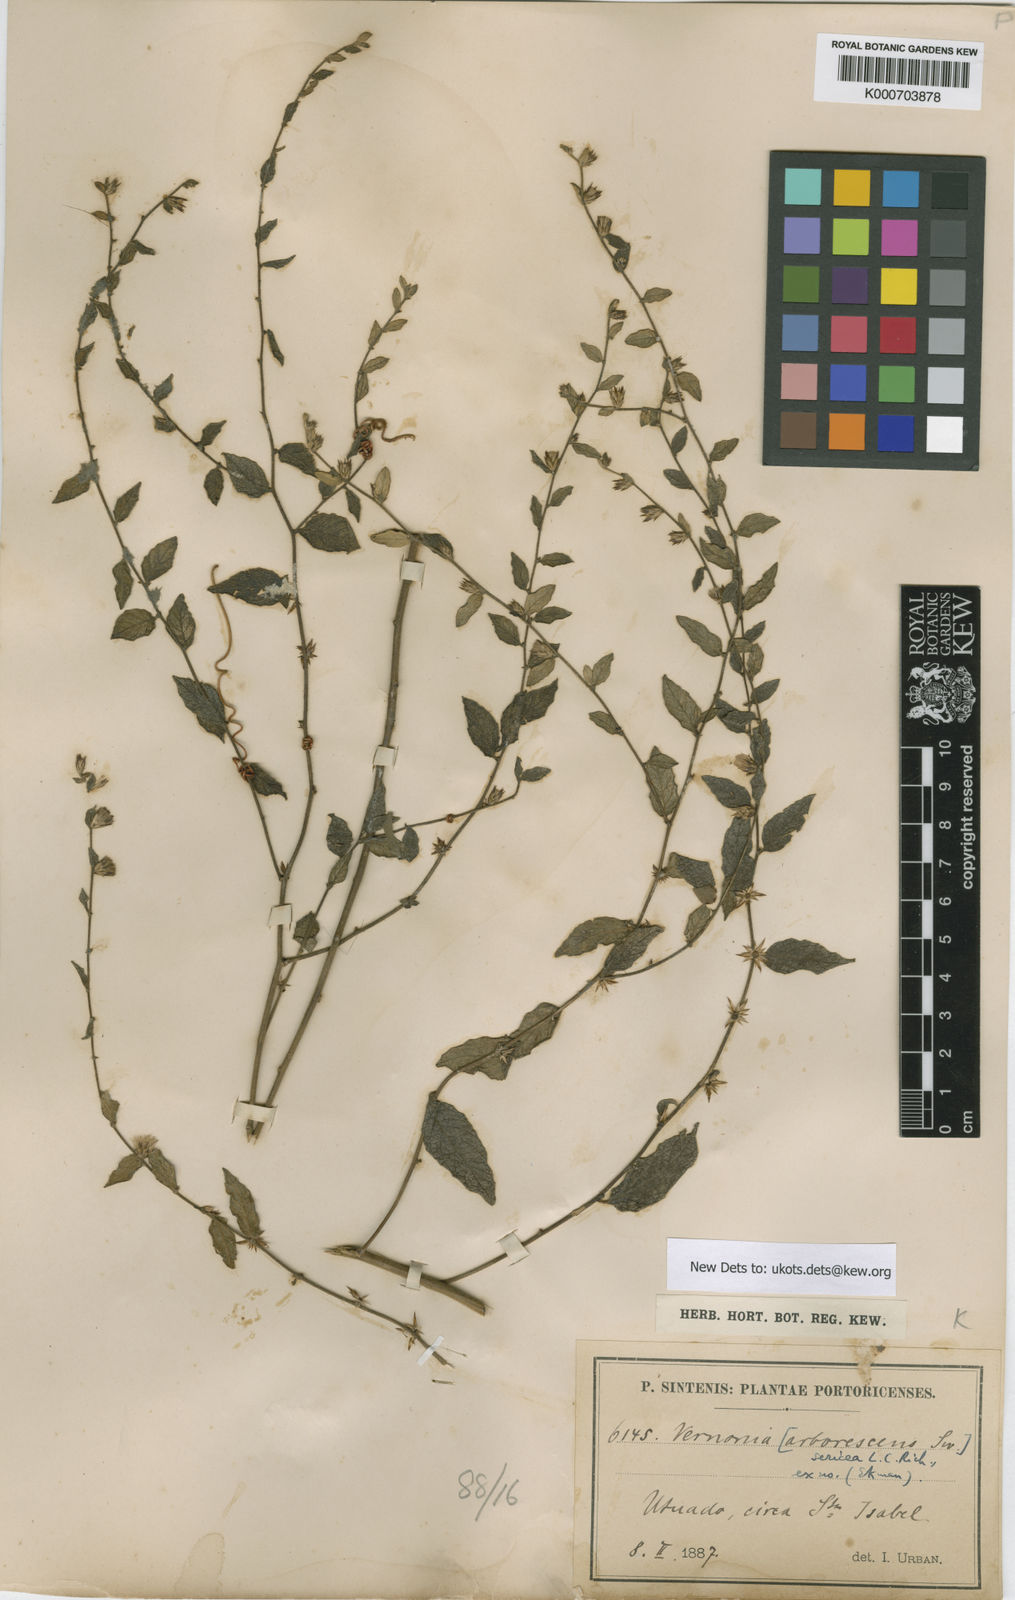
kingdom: Plantae
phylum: Tracheophyta
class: Magnoliopsida
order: Asterales
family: Asteraceae
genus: Lepidaploa
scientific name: Lepidaploa sericea
